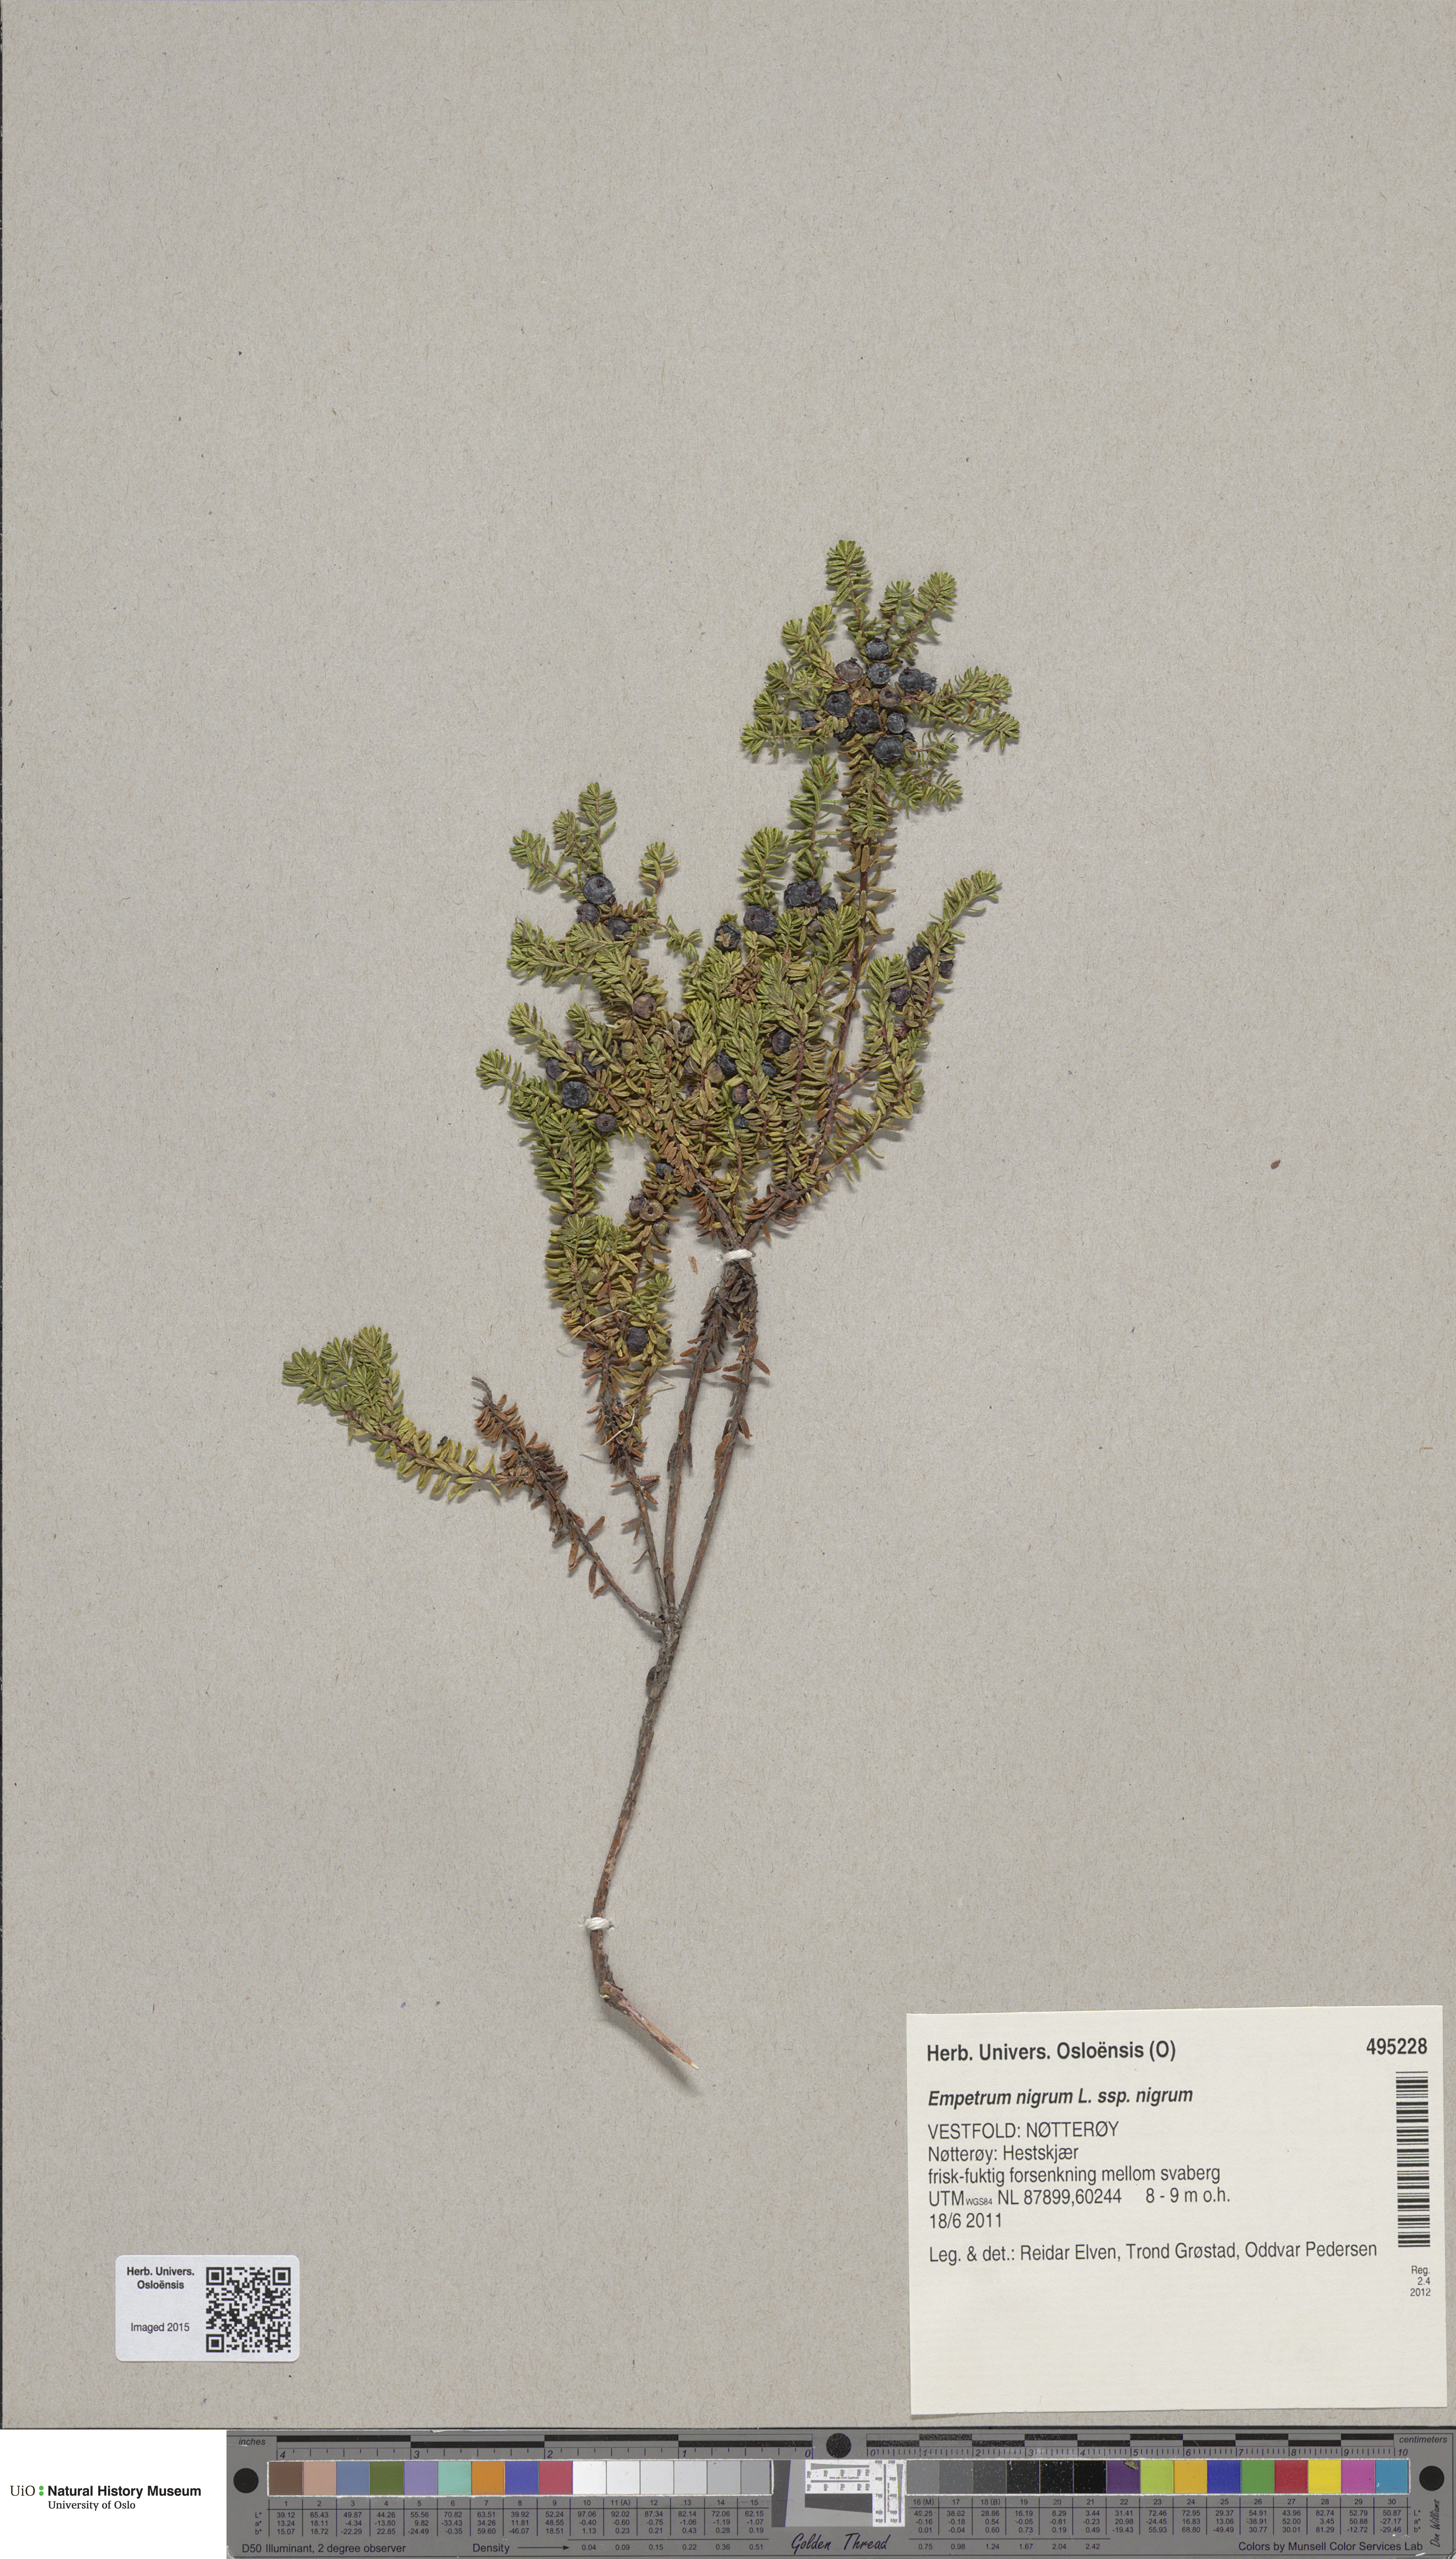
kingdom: Plantae
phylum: Tracheophyta
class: Magnoliopsida
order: Ericales
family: Ericaceae
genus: Empetrum
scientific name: Empetrum nigrum
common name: Black crowberry
